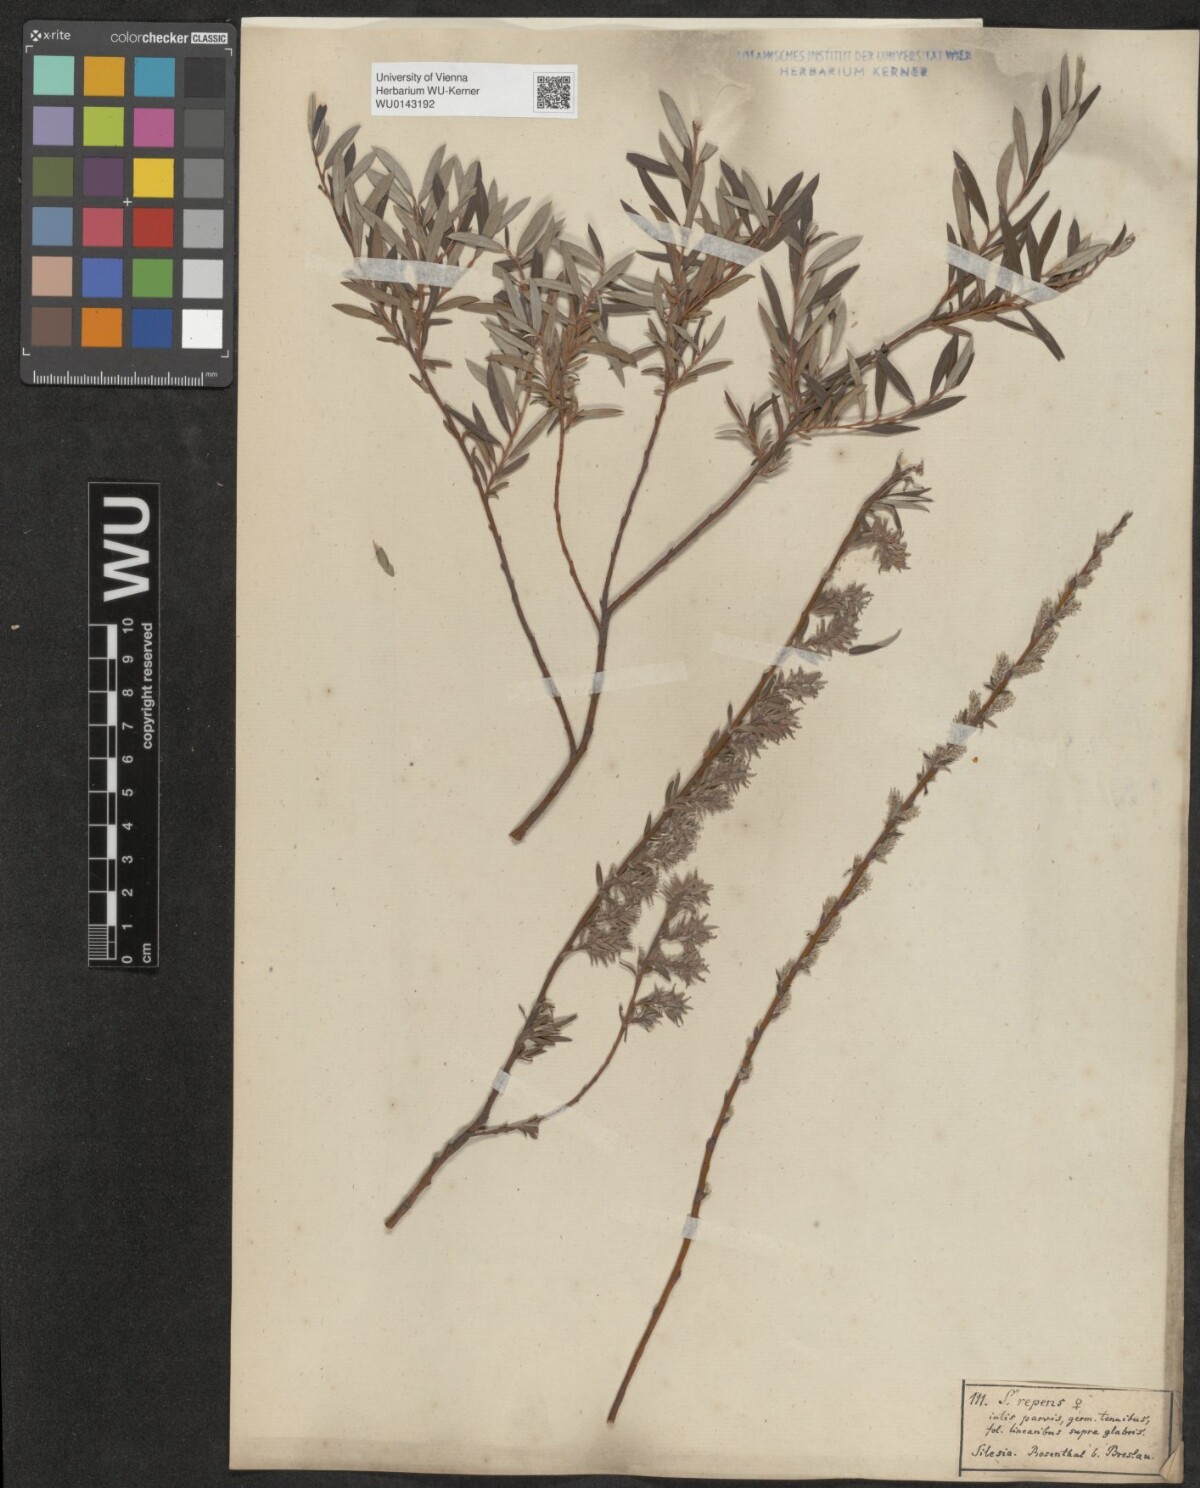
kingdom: Plantae
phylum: Tracheophyta
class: Magnoliopsida
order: Malpighiales
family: Salicaceae
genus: Salix
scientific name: Salix repens
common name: Creeping willow
